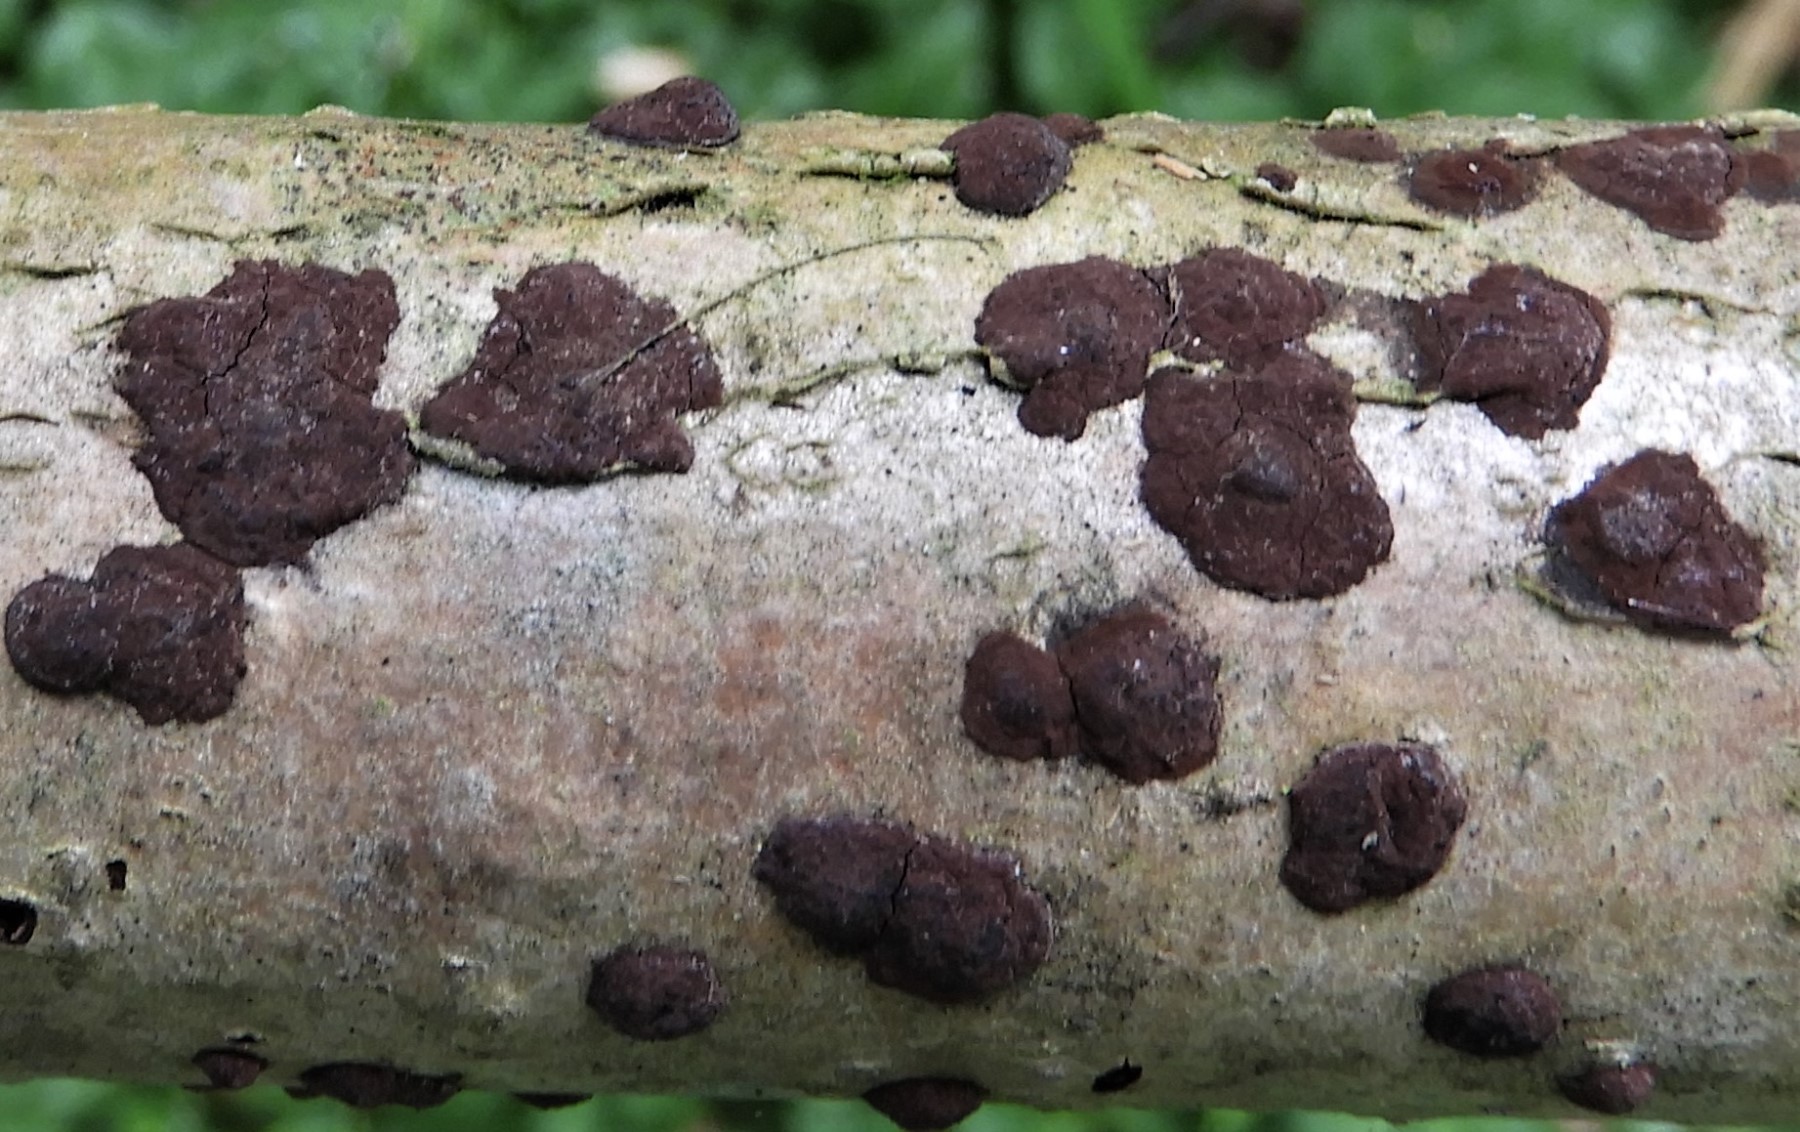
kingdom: Fungi
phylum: Ascomycota
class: Sordariomycetes
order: Xylariales
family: Hypoxylaceae
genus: Hypoxylon
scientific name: Hypoxylon fuscum
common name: kegleformet kulbær
